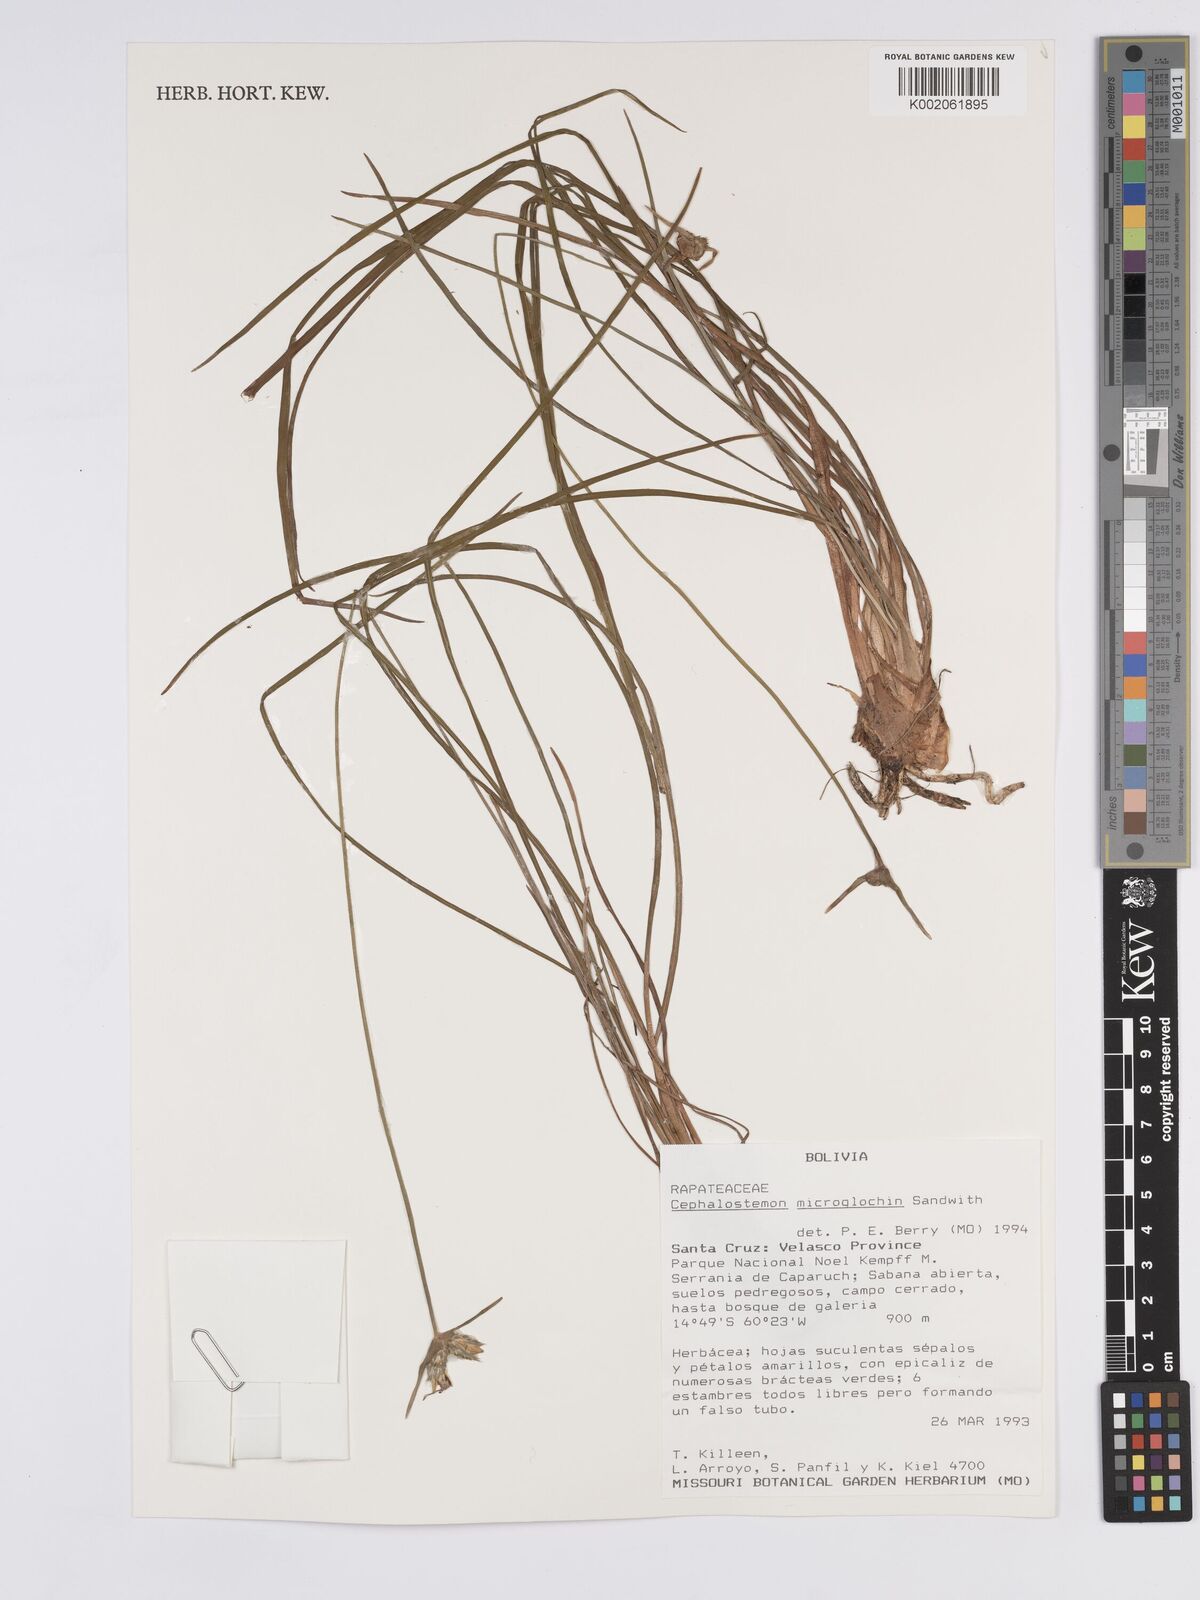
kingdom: Plantae
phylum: Tracheophyta
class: Liliopsida
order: Poales
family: Rapateaceae
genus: Cephalostemon
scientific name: Cephalostemon microglochin
